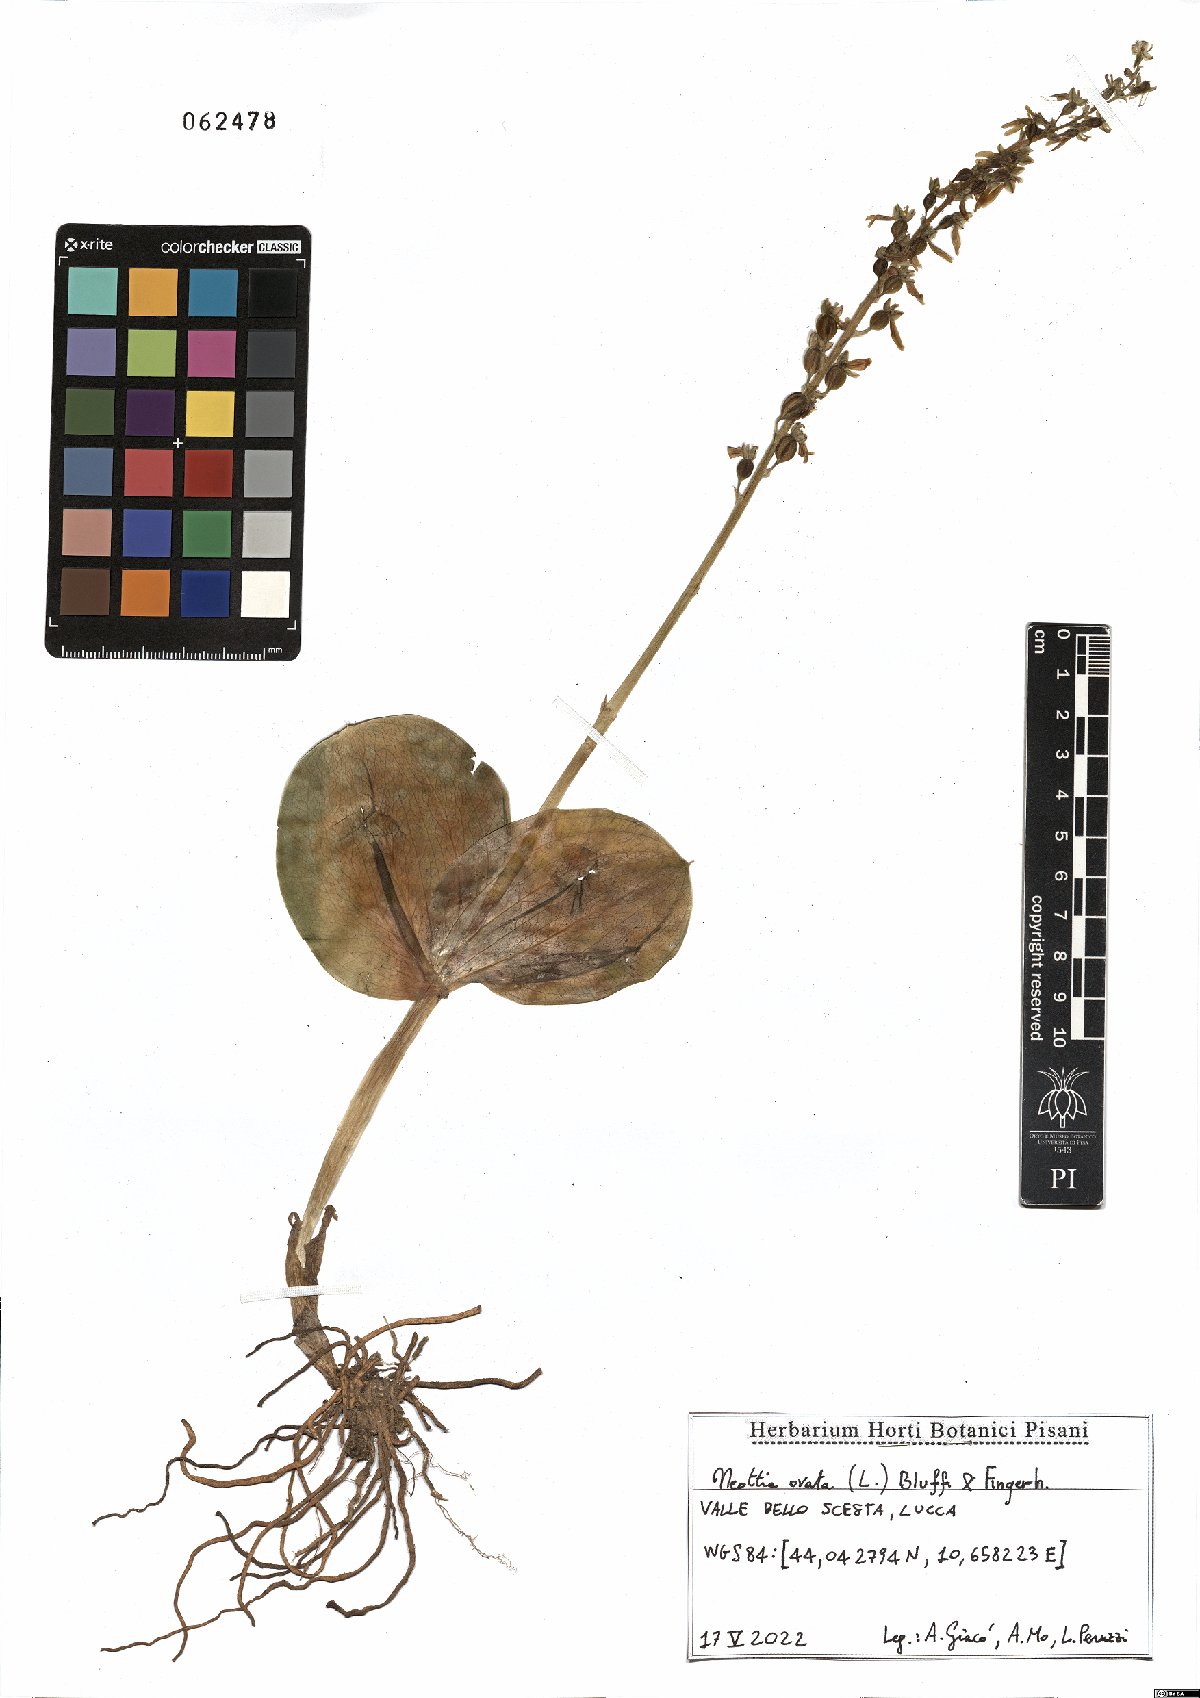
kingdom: Plantae
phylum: Tracheophyta
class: Liliopsida
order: Asparagales
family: Orchidaceae
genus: Neottia
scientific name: Neottia ovata
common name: Common twayblade
